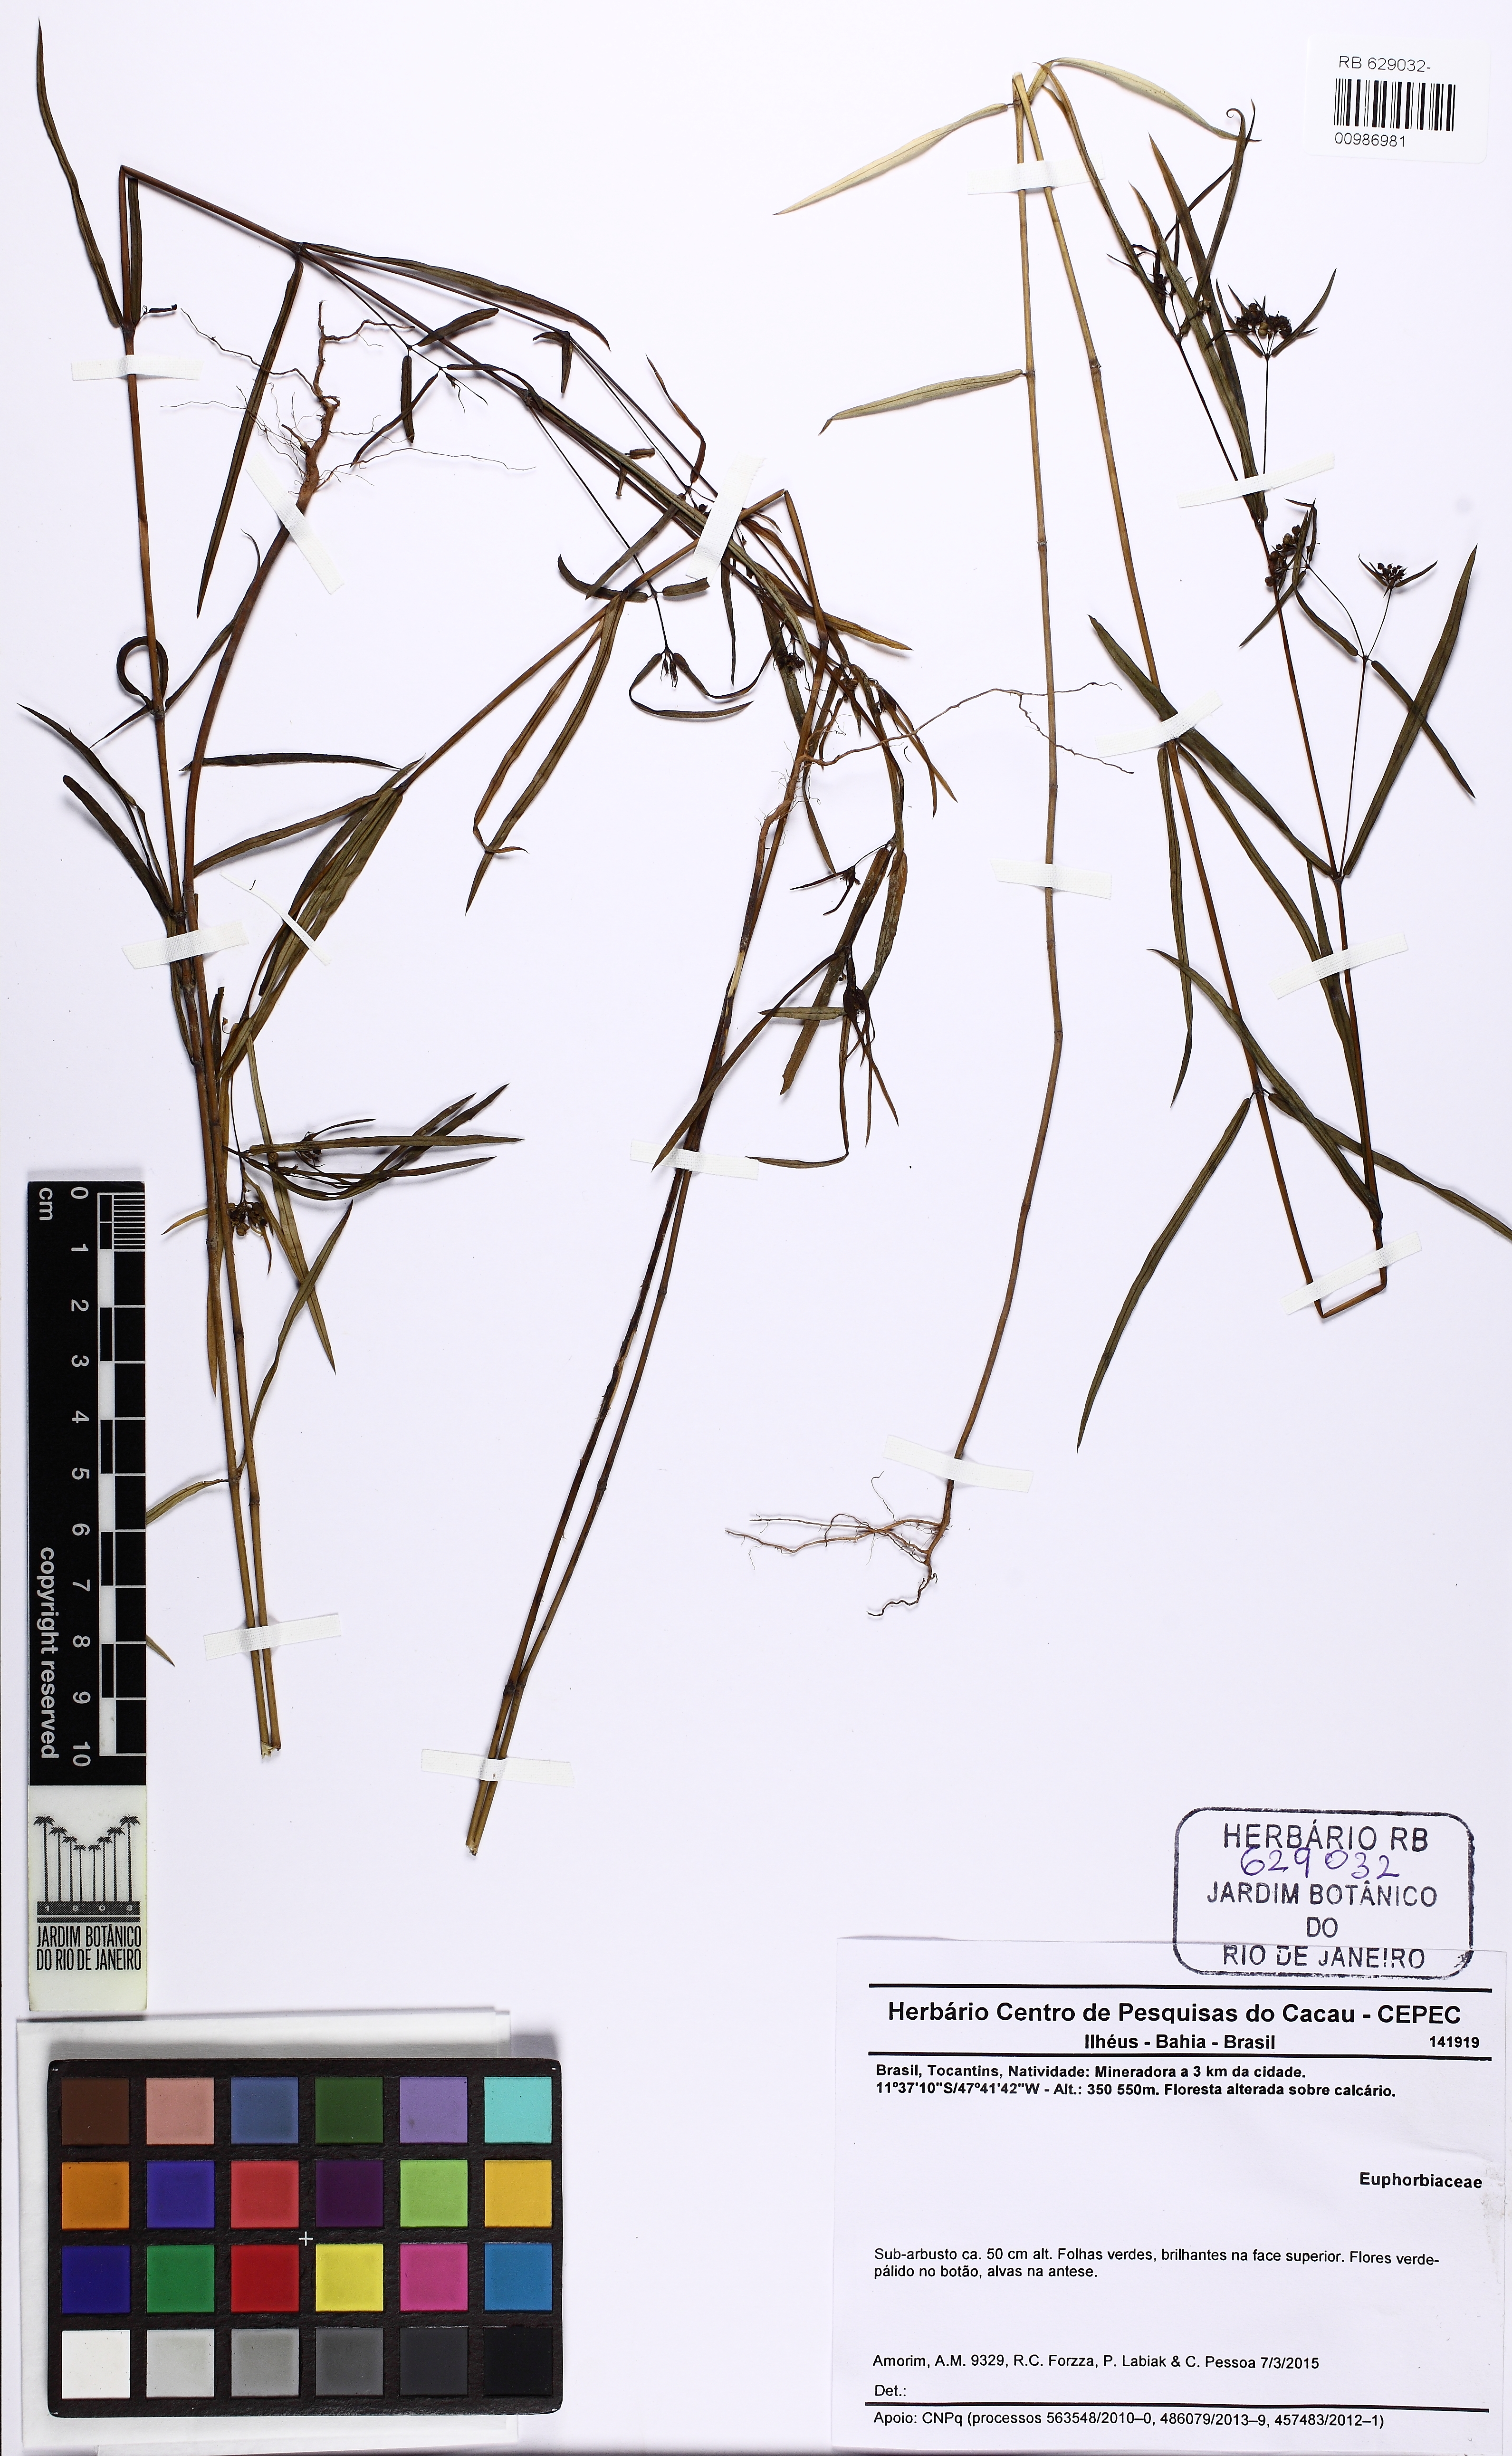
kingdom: Plantae
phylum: Tracheophyta
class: Magnoliopsida
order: Malpighiales
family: Euphorbiaceae
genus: Euphorbia
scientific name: Euphorbia hyssopifolia
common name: Hyssopleaf sandmat
